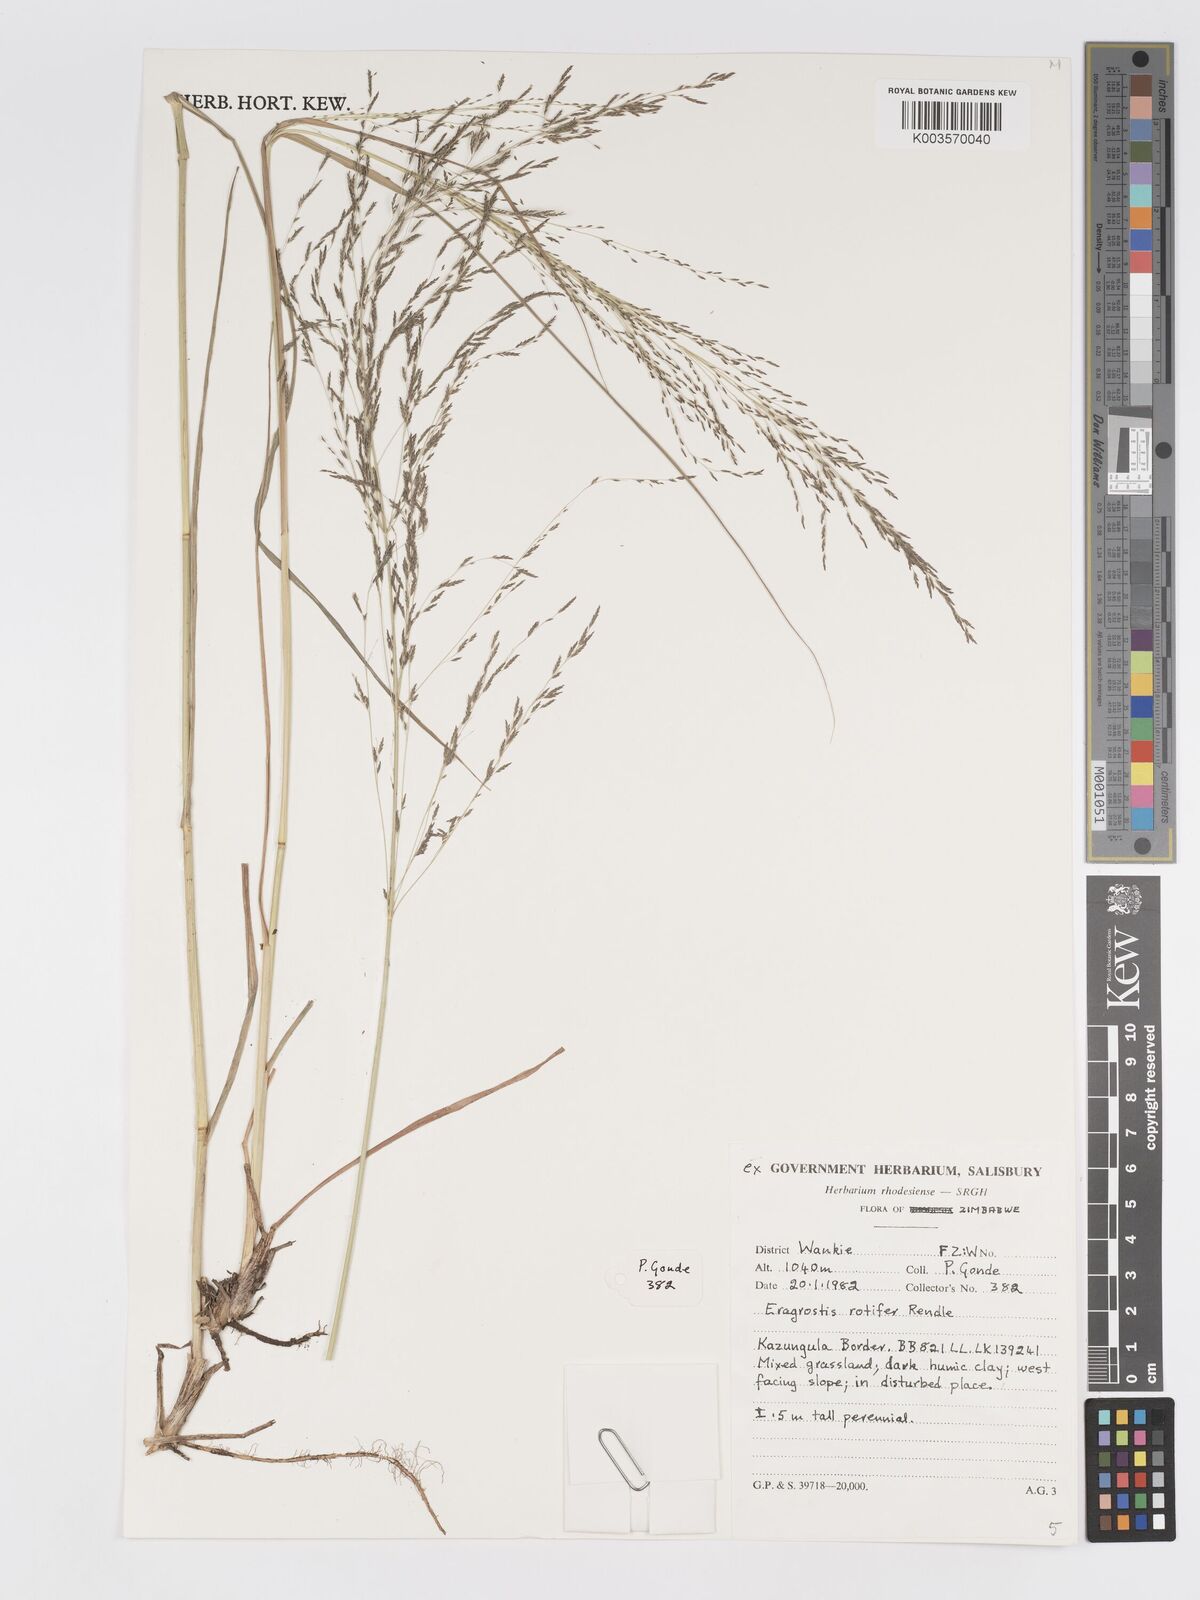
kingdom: Plantae
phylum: Tracheophyta
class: Liliopsida
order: Poales
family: Poaceae
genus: Eragrostis
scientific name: Eragrostis rotifer
